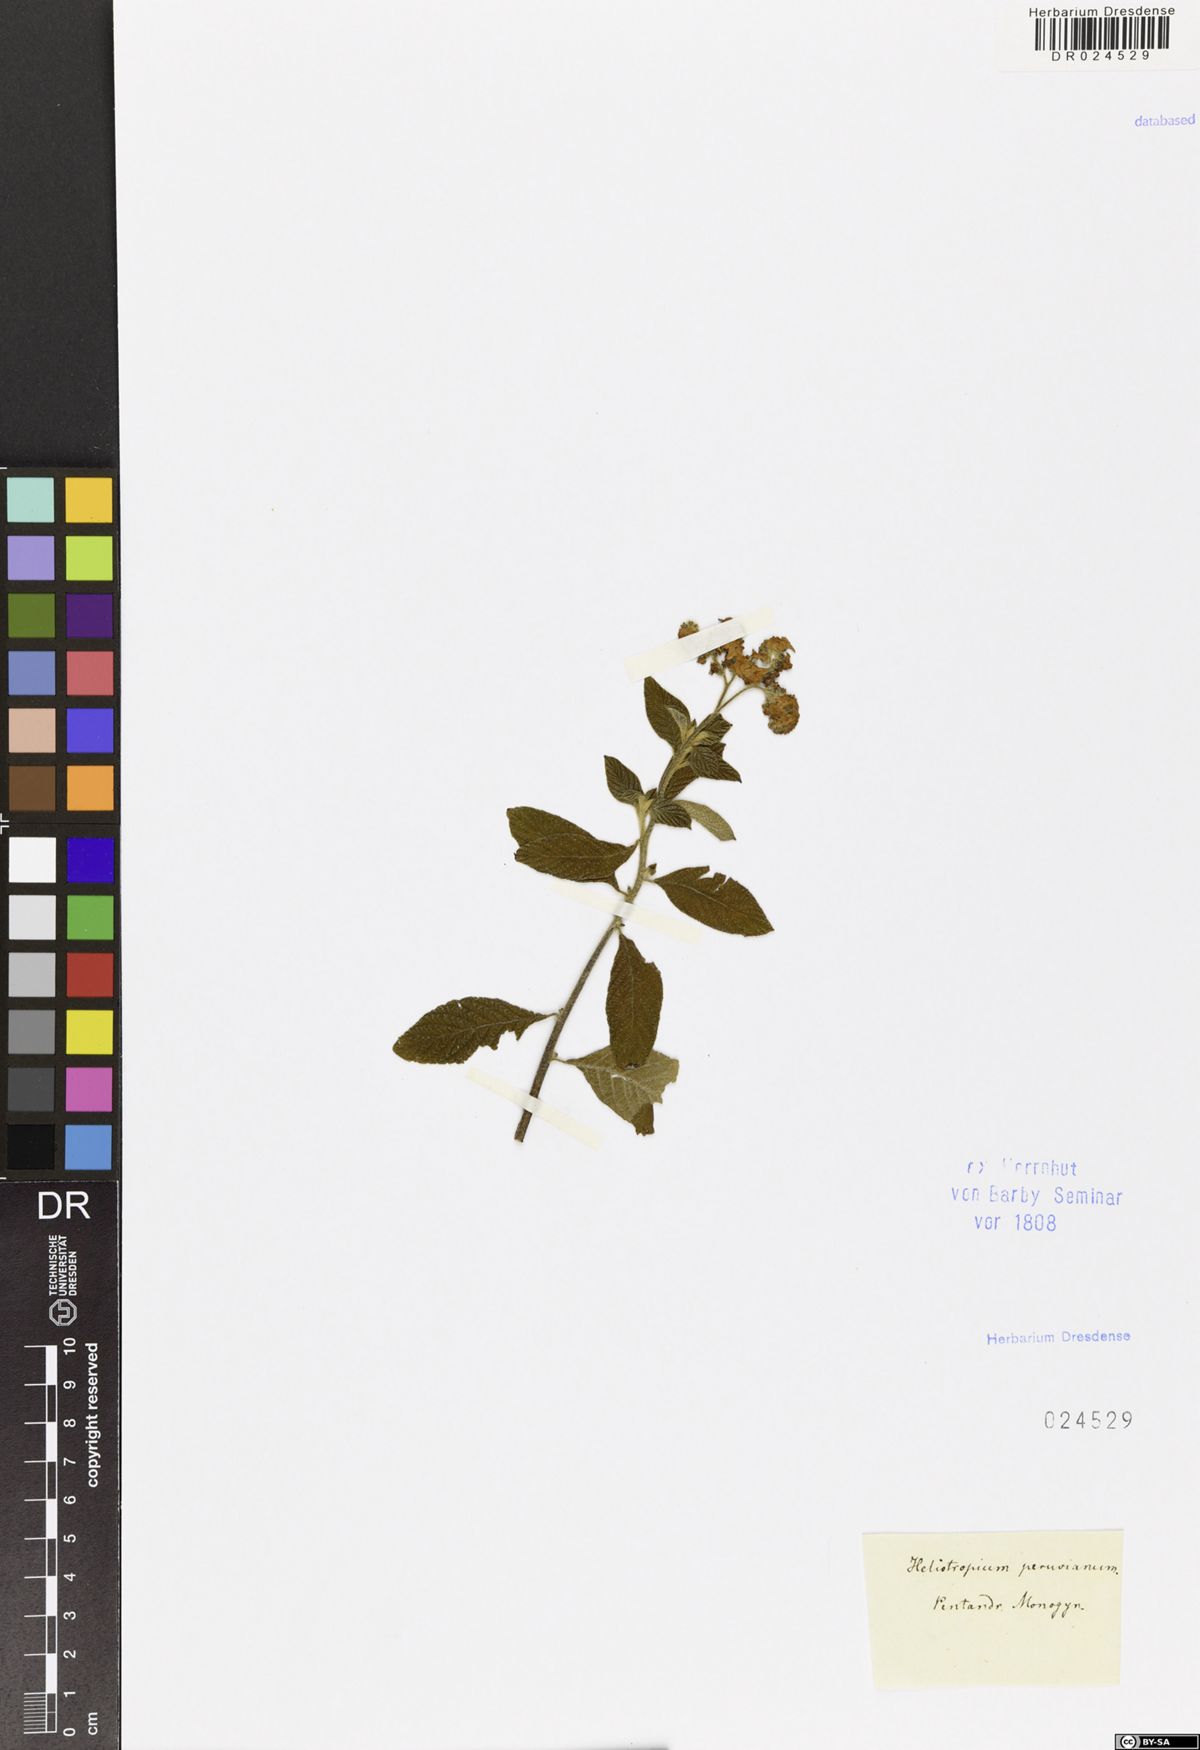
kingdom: Plantae
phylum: Tracheophyta
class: Magnoliopsida
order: Boraginales
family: Heliotropiaceae
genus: Heliotropium
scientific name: Heliotropium arborescens
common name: Cherry-pie
